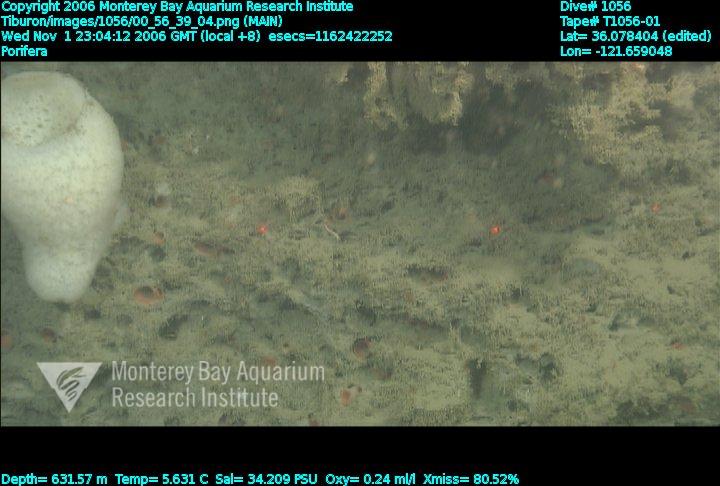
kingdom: Animalia
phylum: Porifera
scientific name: Porifera
